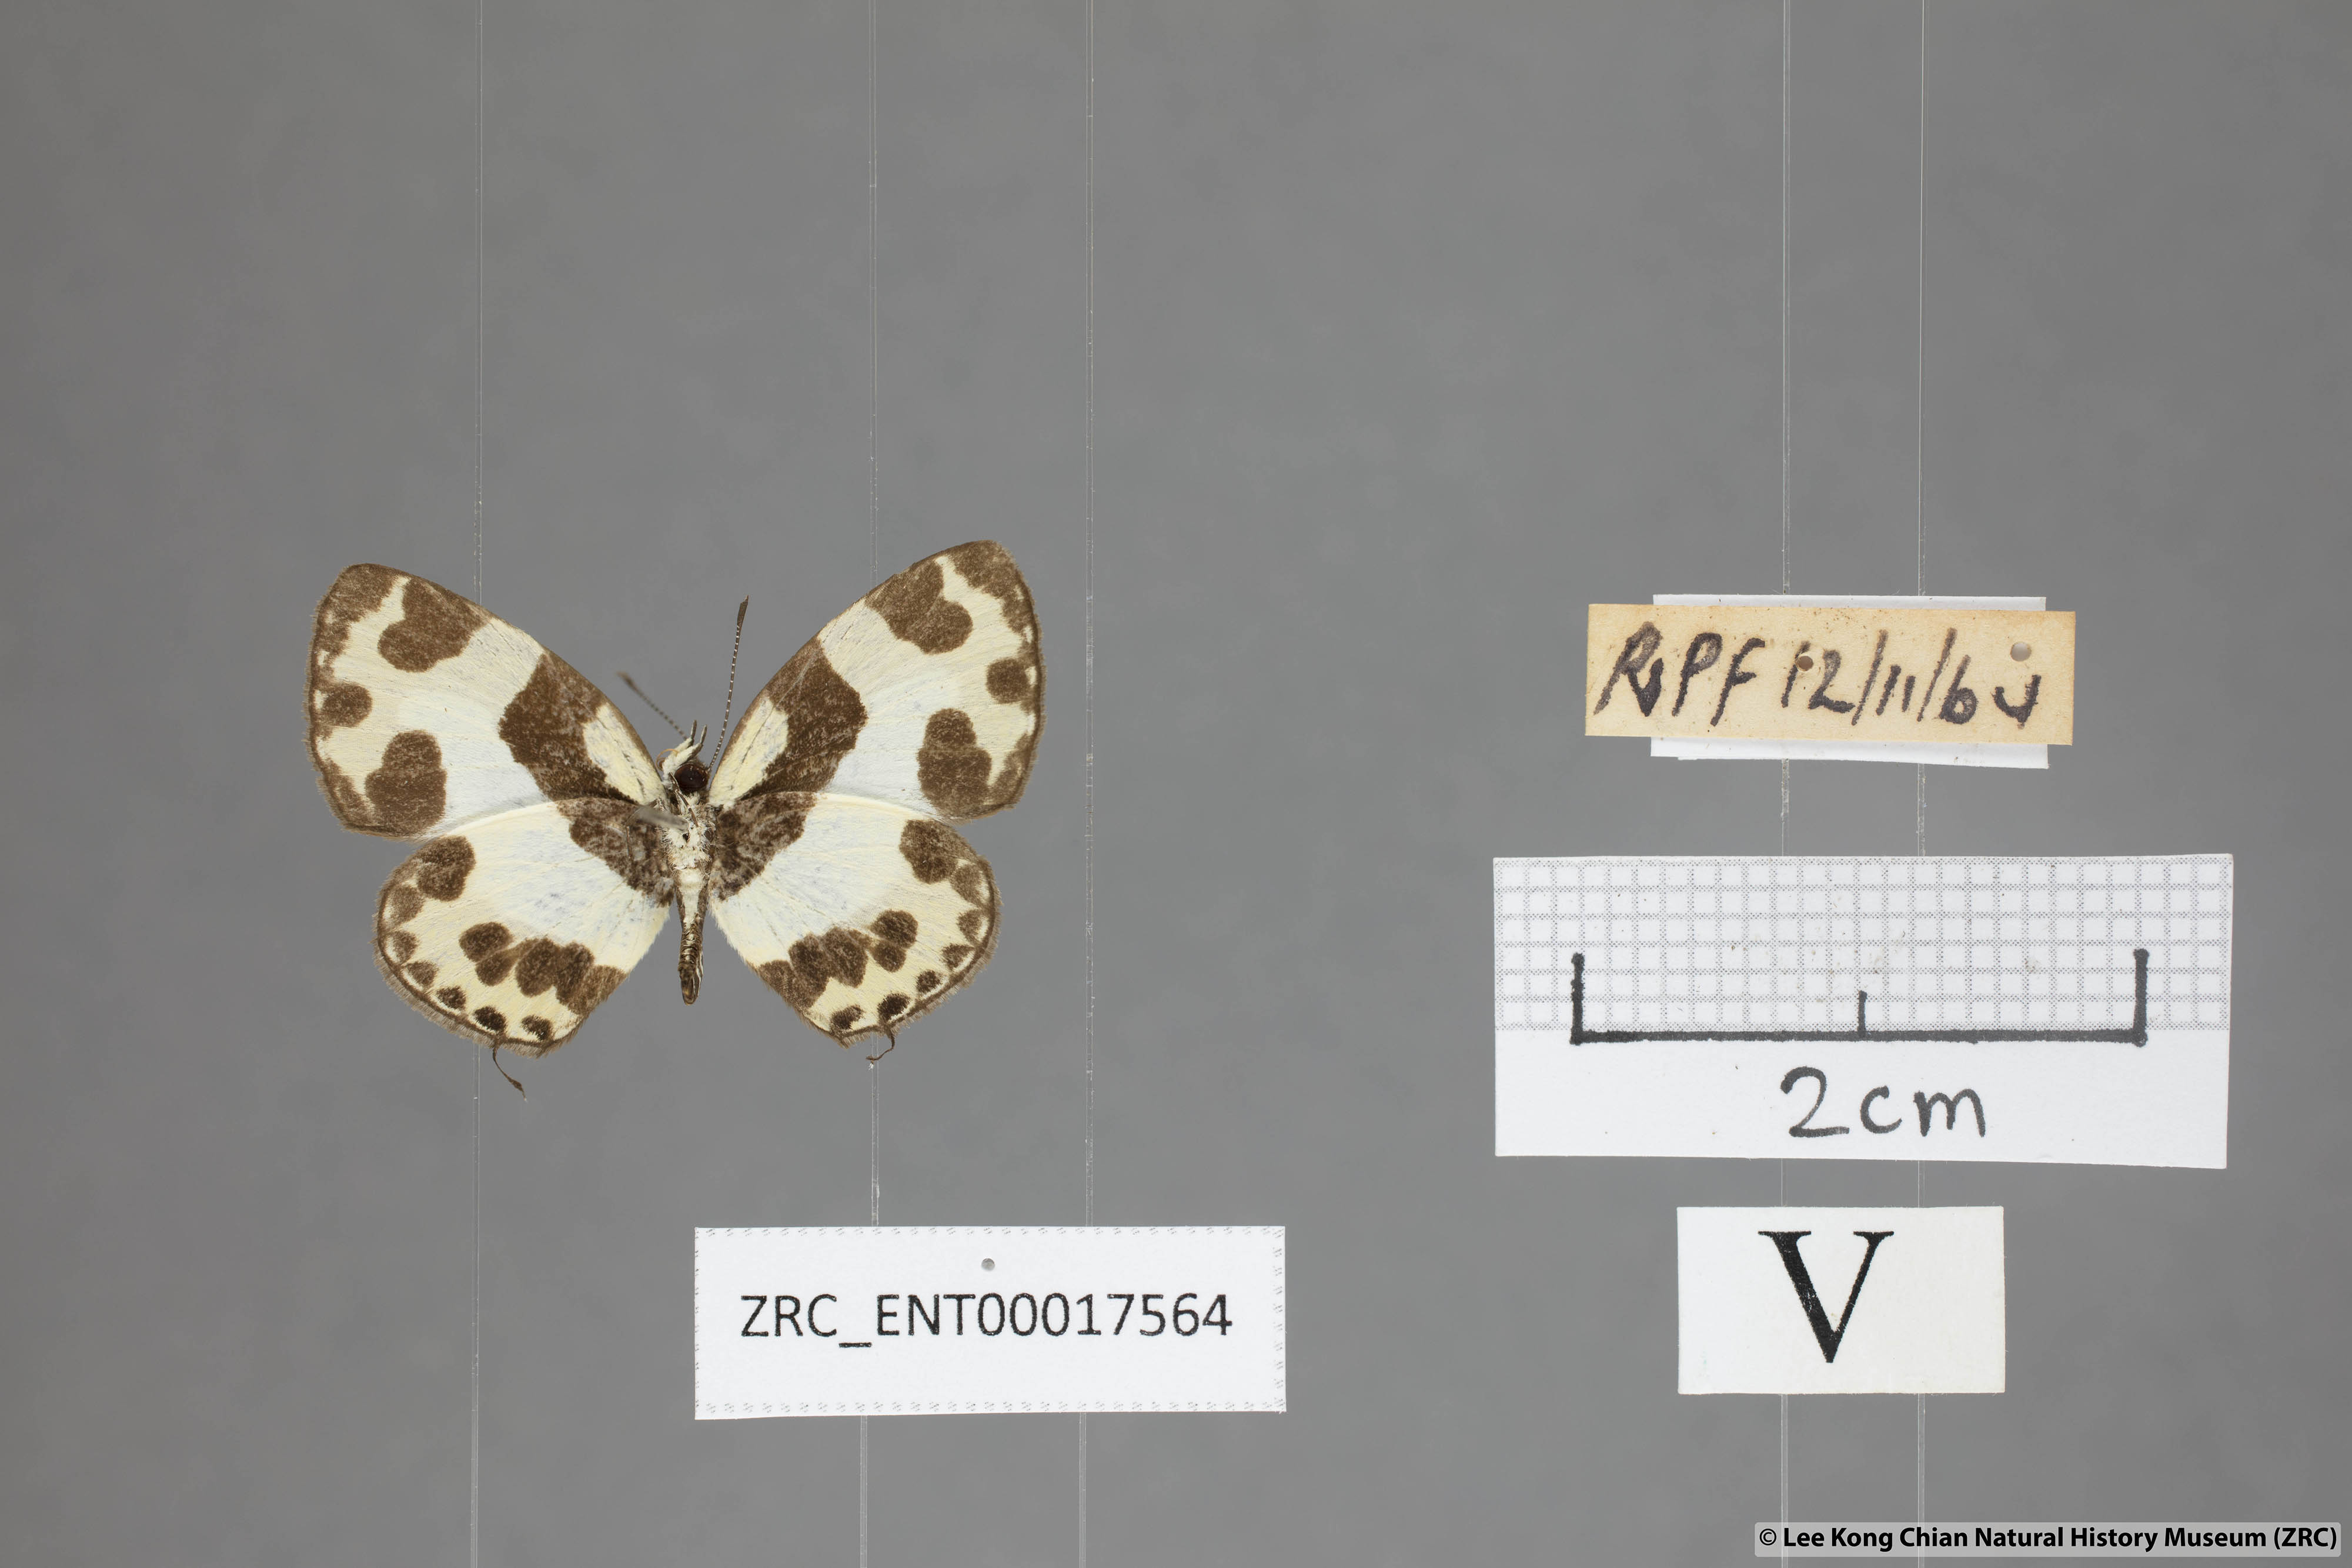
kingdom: Animalia
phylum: Arthropoda
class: Insecta
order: Lepidoptera
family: Lycaenidae
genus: Caleta
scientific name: Caleta elna
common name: Elbowed pierrot
